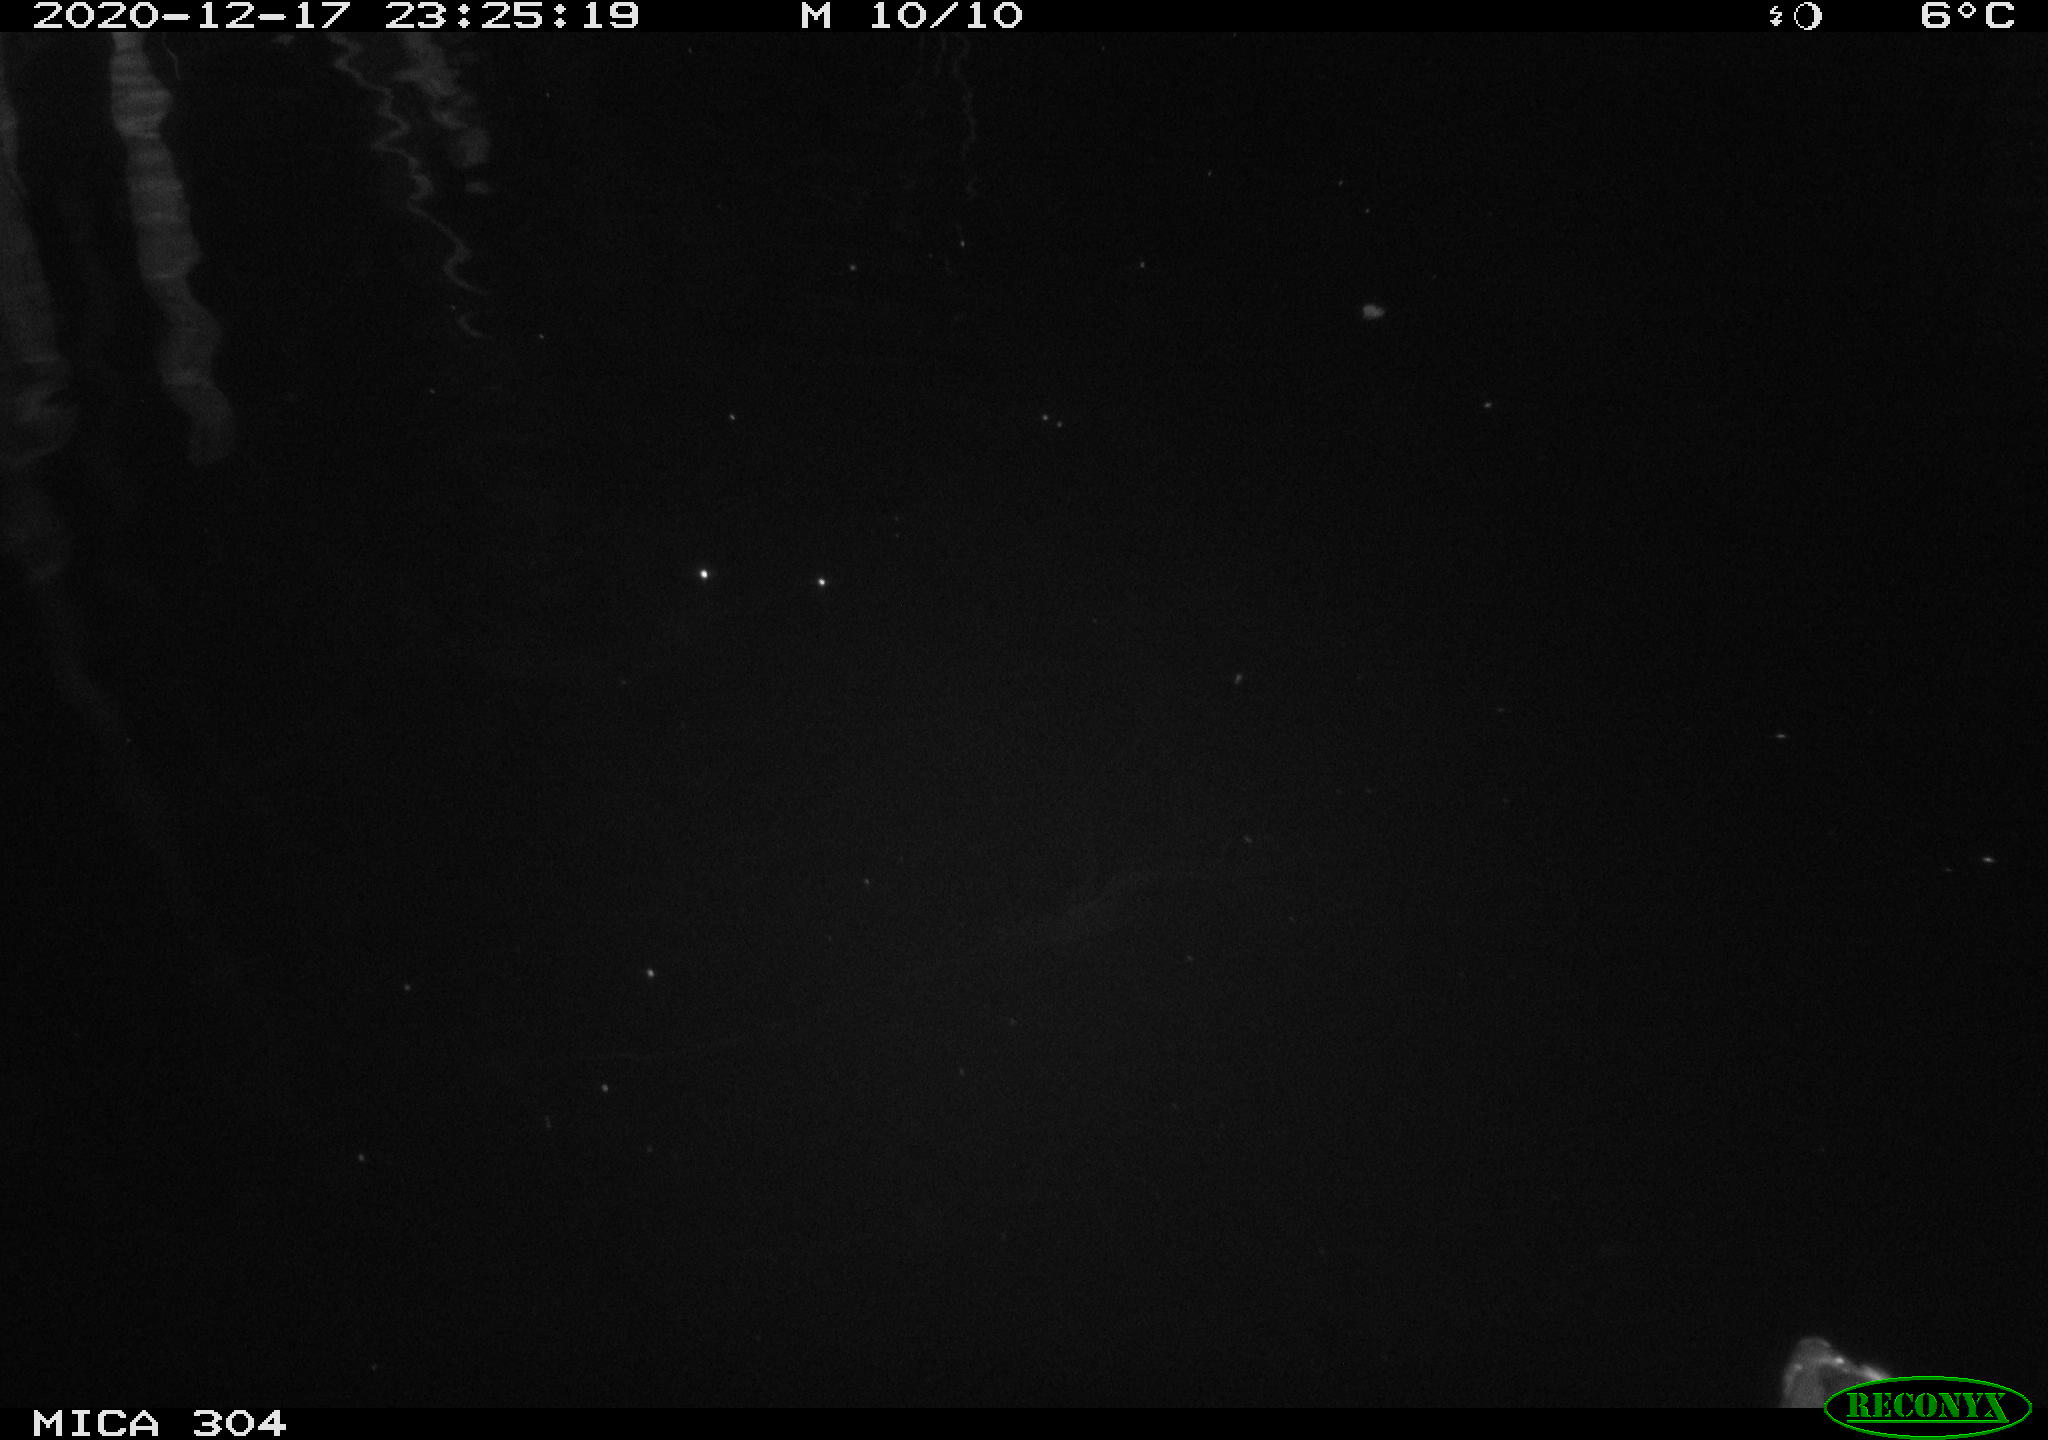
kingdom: Animalia
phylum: Chordata
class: Aves
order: Gruiformes
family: Rallidae
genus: Gallinula
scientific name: Gallinula chloropus
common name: Common moorhen
